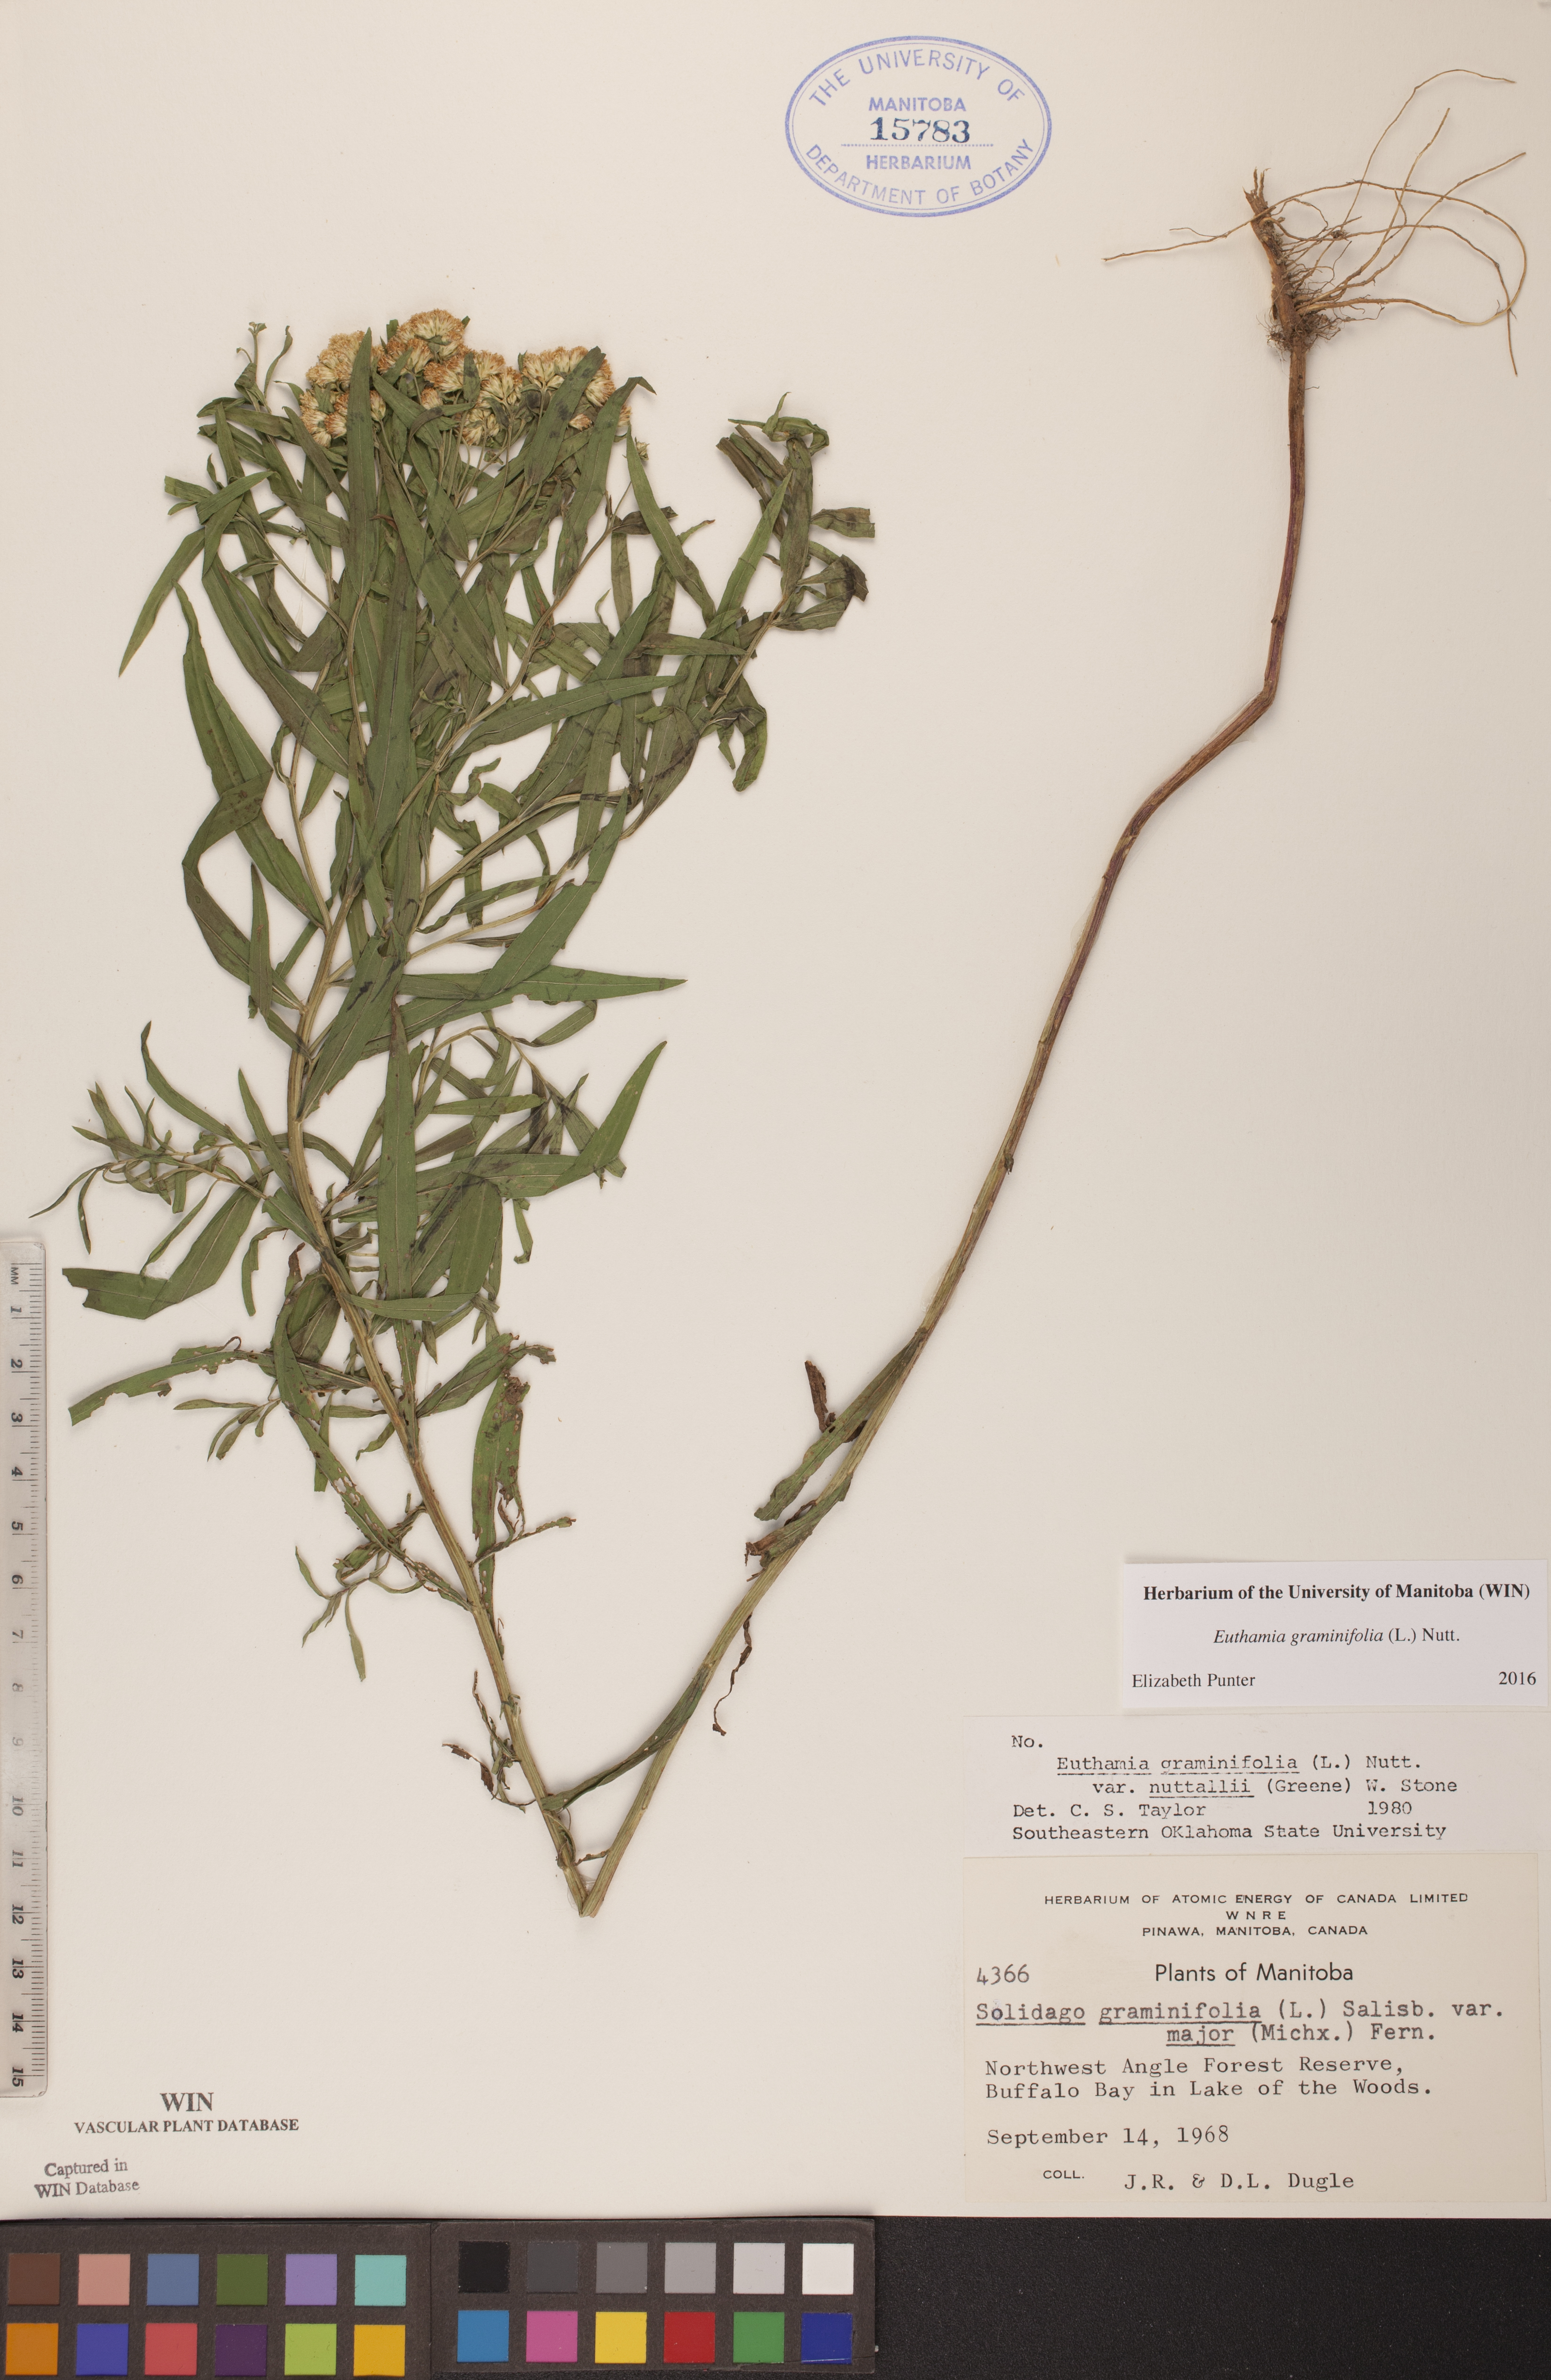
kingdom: Plantae
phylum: Tracheophyta
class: Magnoliopsida
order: Asterales
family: Asteraceae
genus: Euthamia
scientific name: Euthamia graminifolia
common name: Common goldentop
